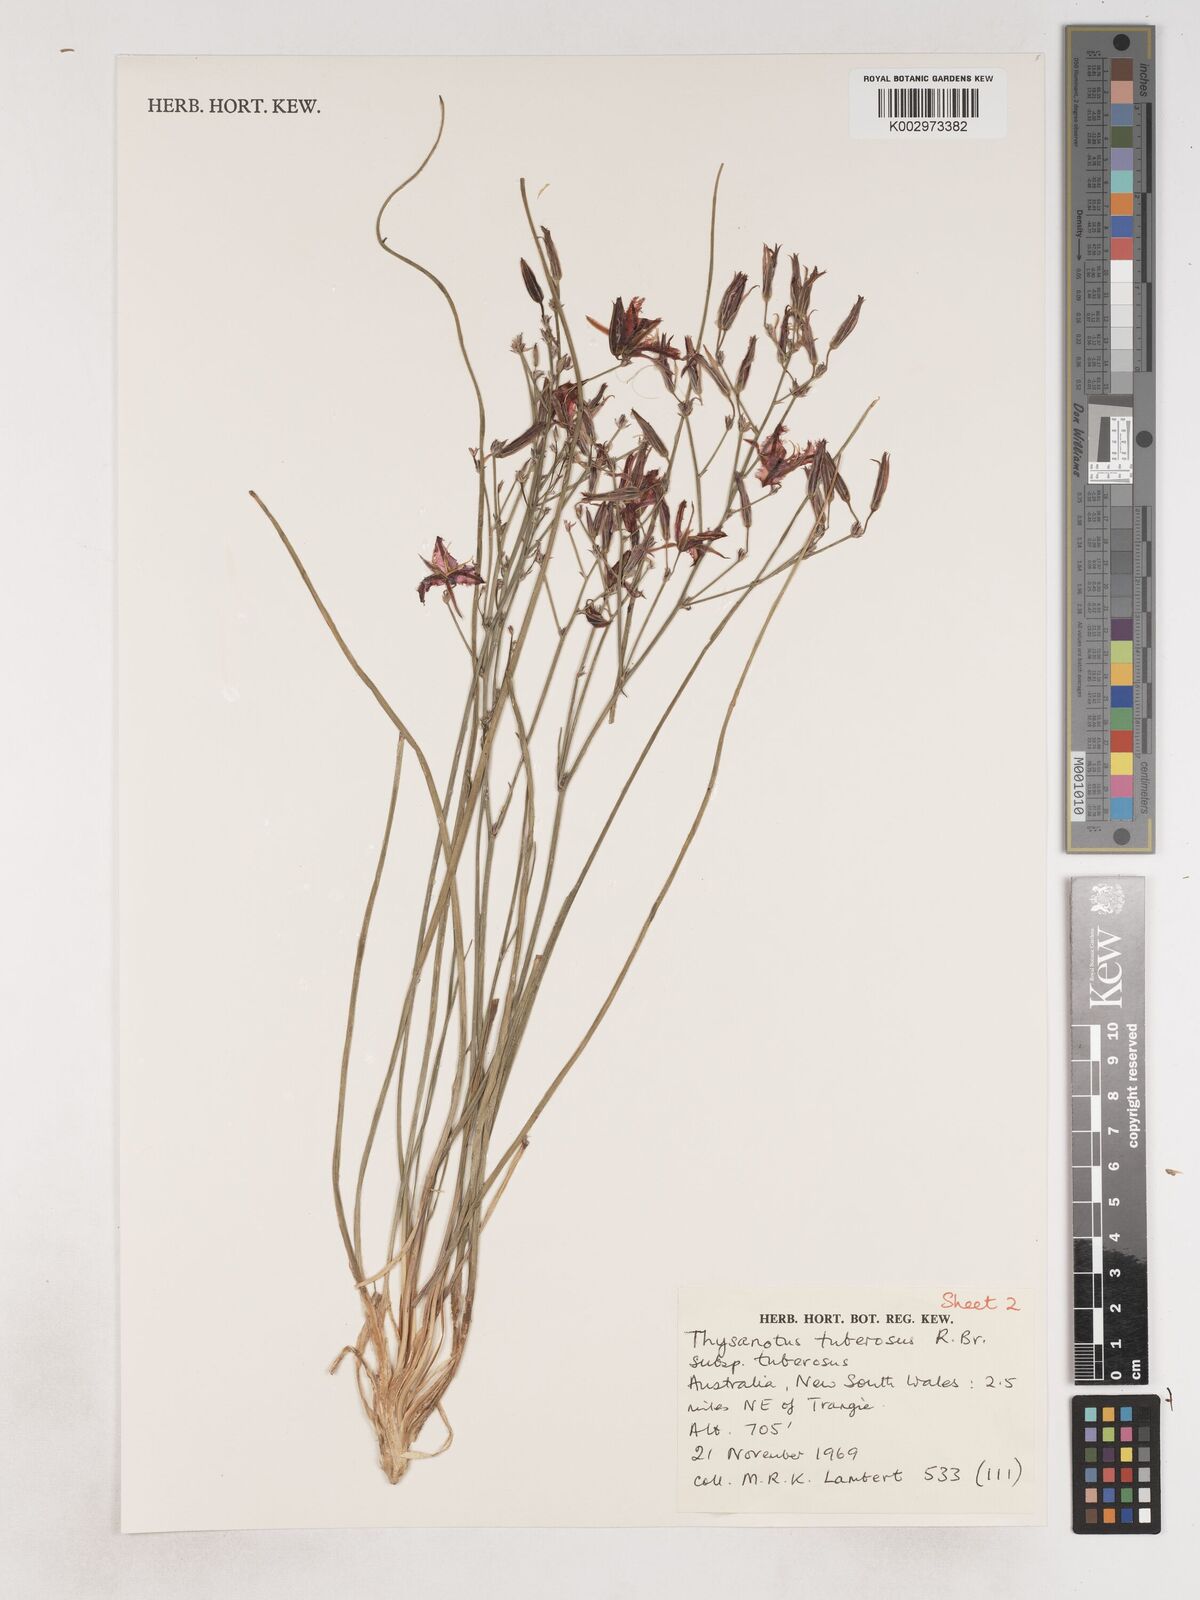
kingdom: Plantae
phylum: Tracheophyta
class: Liliopsida
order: Asparagales
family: Asparagaceae
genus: Thysanotus
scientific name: Thysanotus tuberosus
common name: Common fringed-lily
